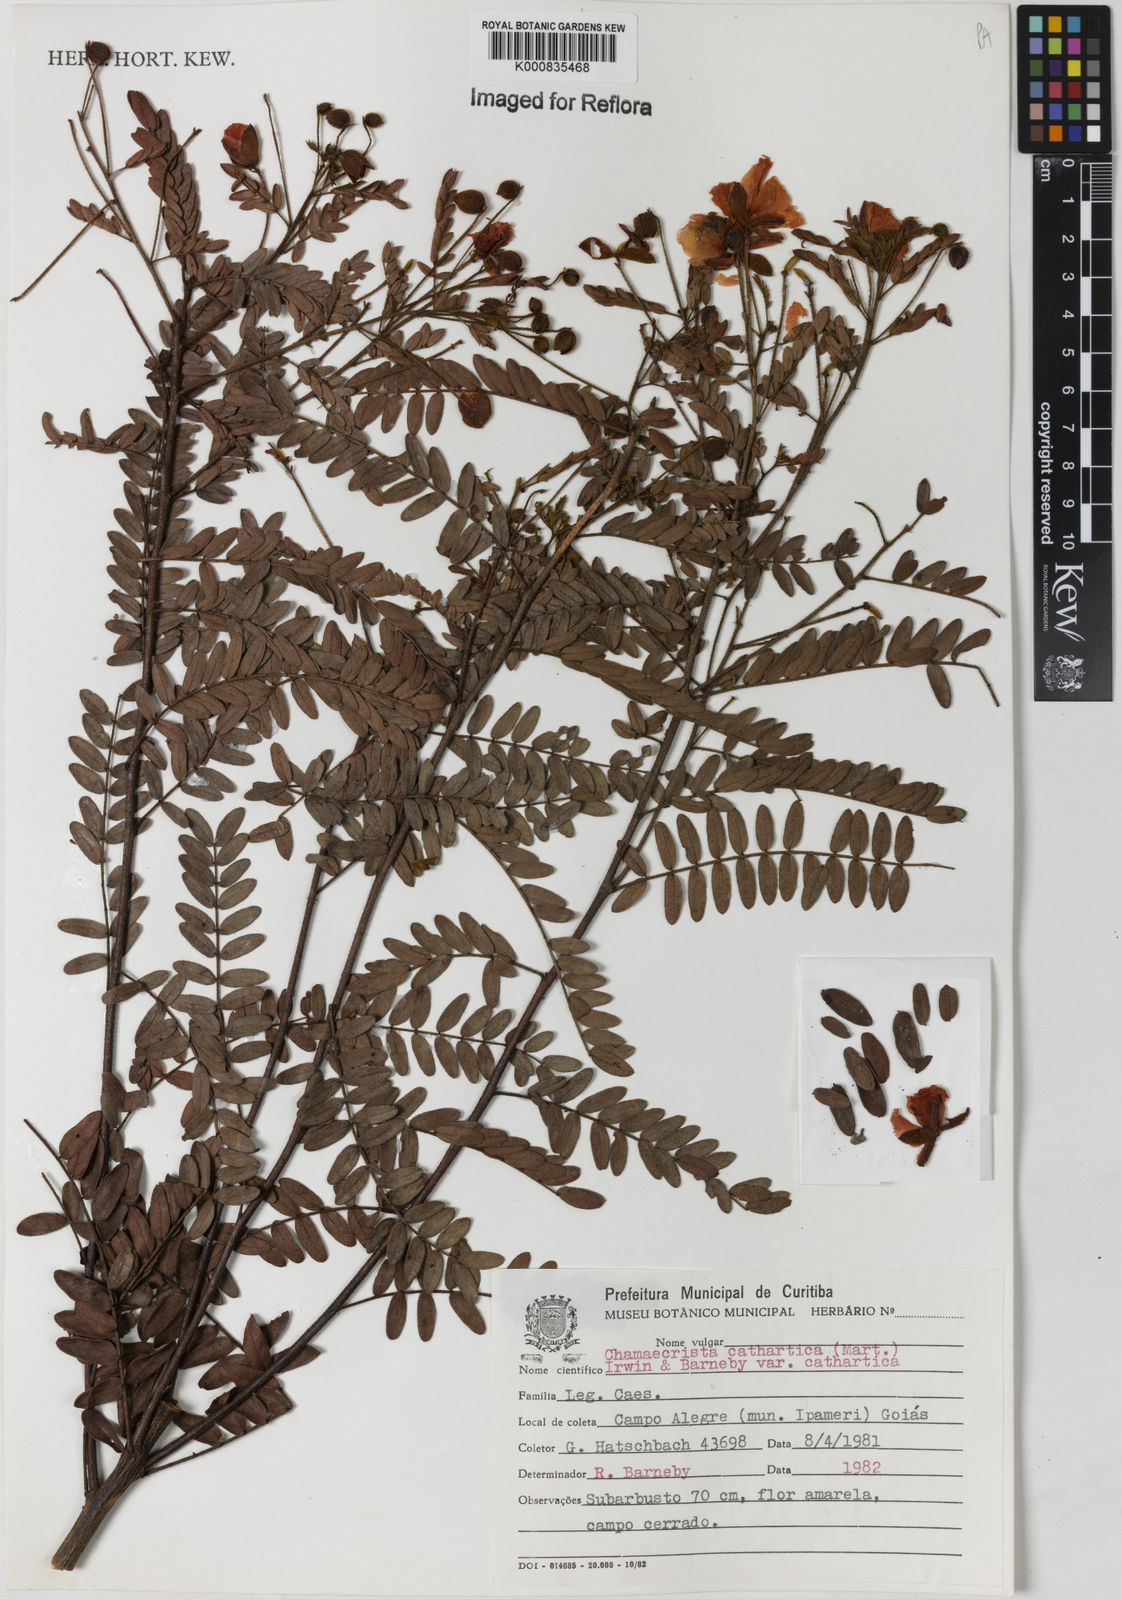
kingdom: Plantae
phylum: Tracheophyta
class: Magnoliopsida
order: Fabales
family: Fabaceae
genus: Chamaecrista
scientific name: Chamaecrista cathartica
